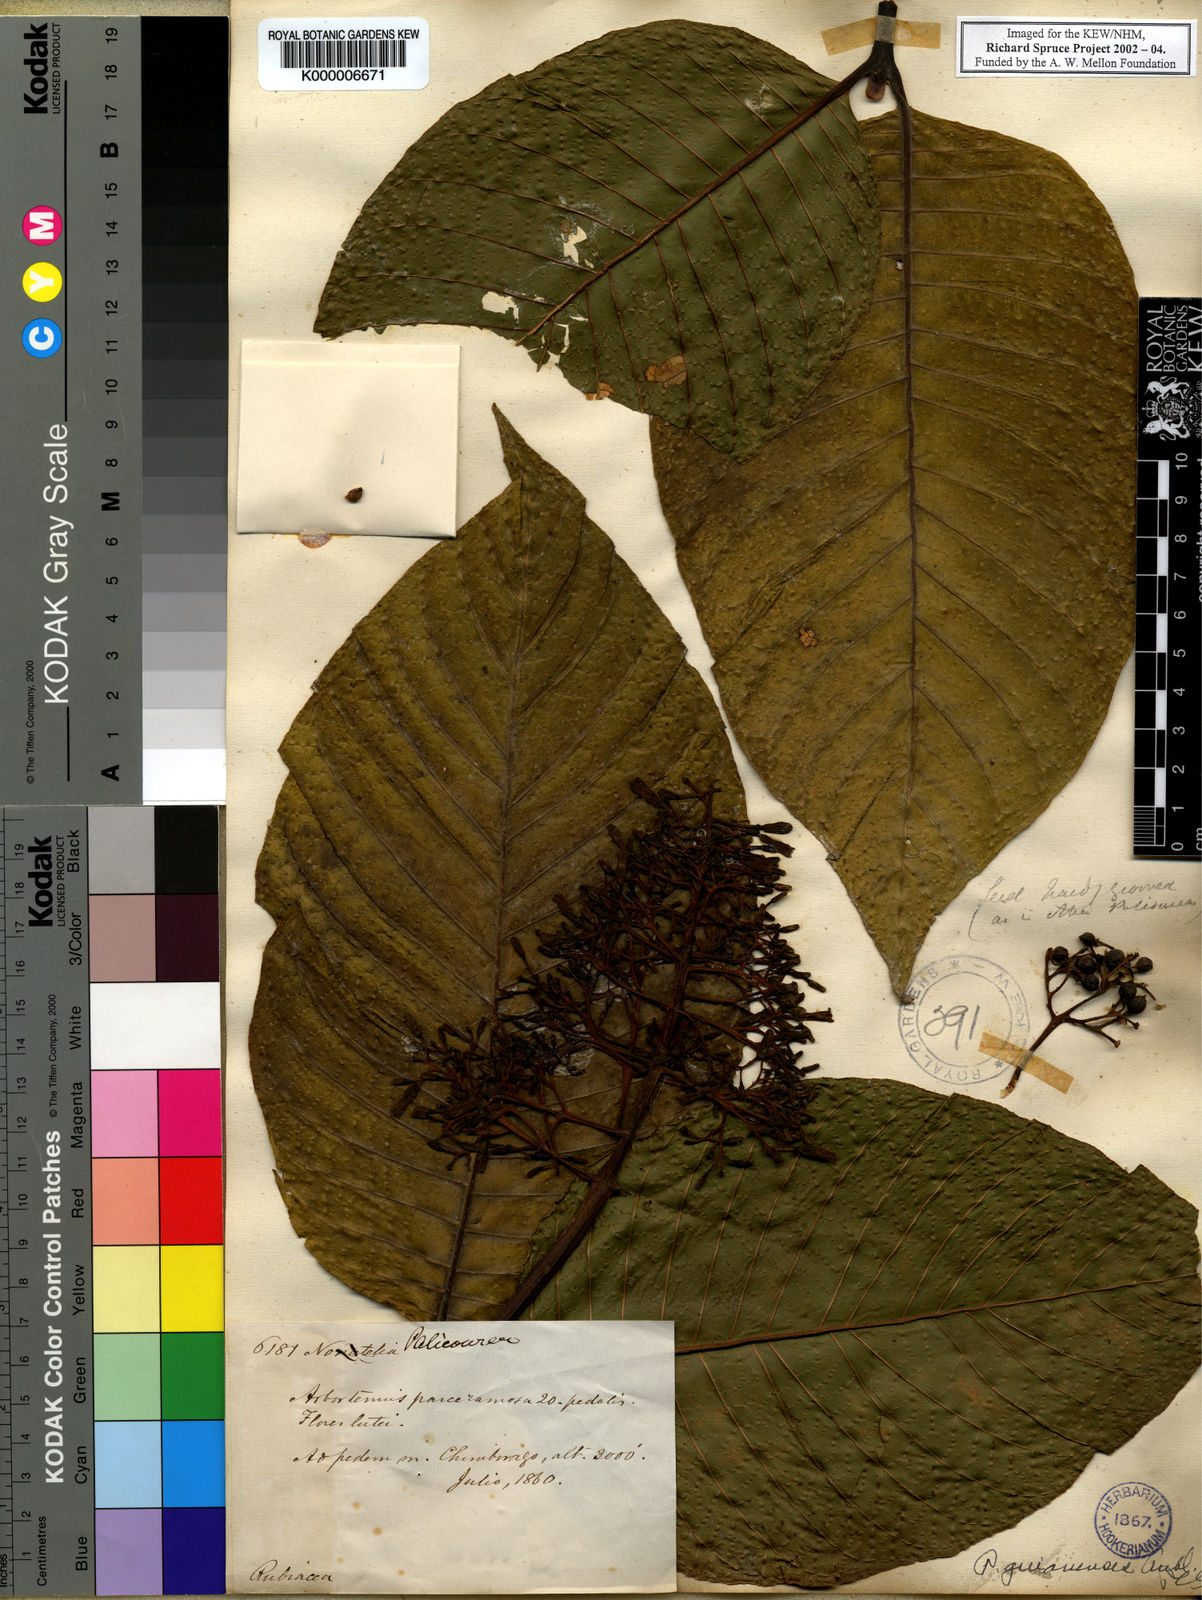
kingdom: Plantae
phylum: Tracheophyta
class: Magnoliopsida
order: Gentianales
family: Rubiaceae
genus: Palicourea
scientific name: Palicourea guianensis
